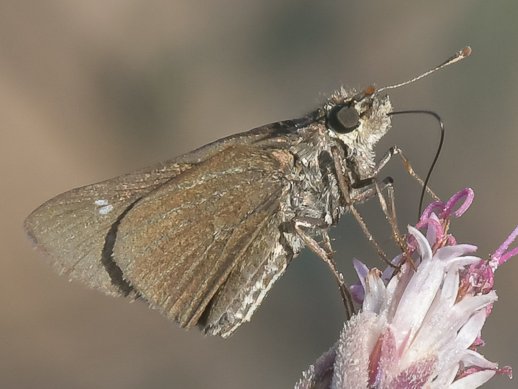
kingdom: Animalia
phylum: Arthropoda
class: Insecta
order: Lepidoptera
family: Hesperiidae
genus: Panoquina
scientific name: Panoquina
